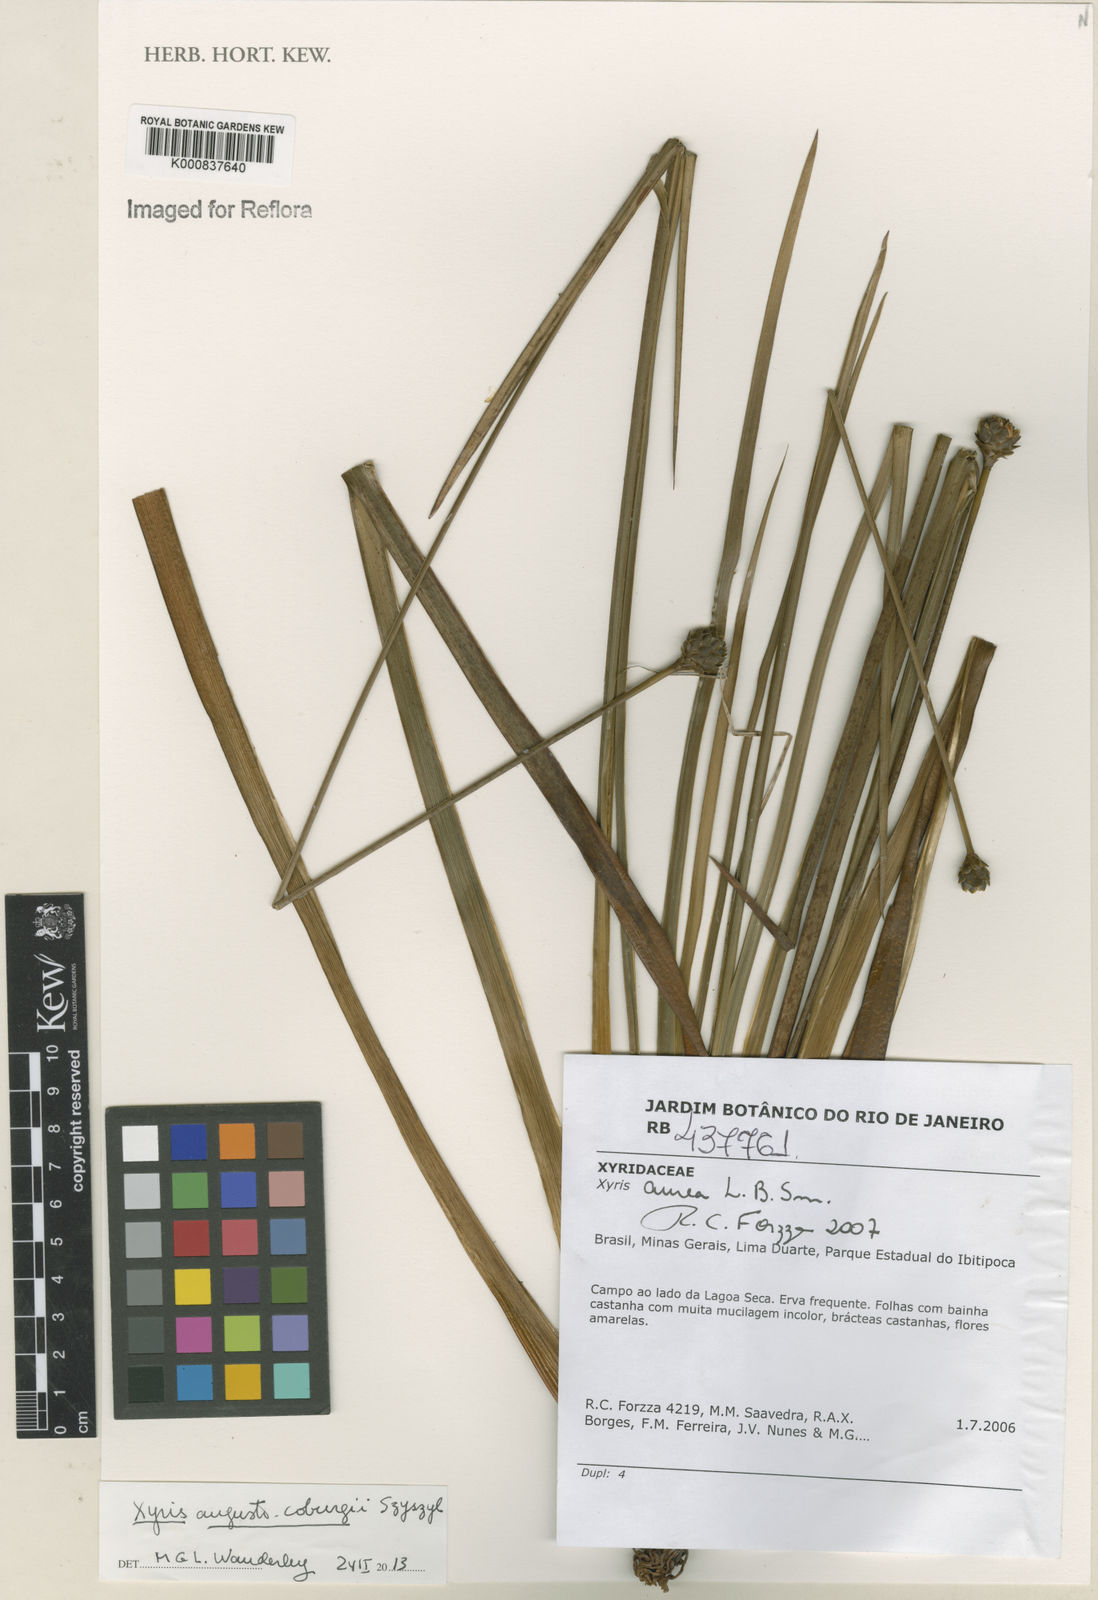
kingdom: Plantae
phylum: Tracheophyta
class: Liliopsida
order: Poales
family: Xyridaceae
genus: Xyris
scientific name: Xyris augusto-coburgii
